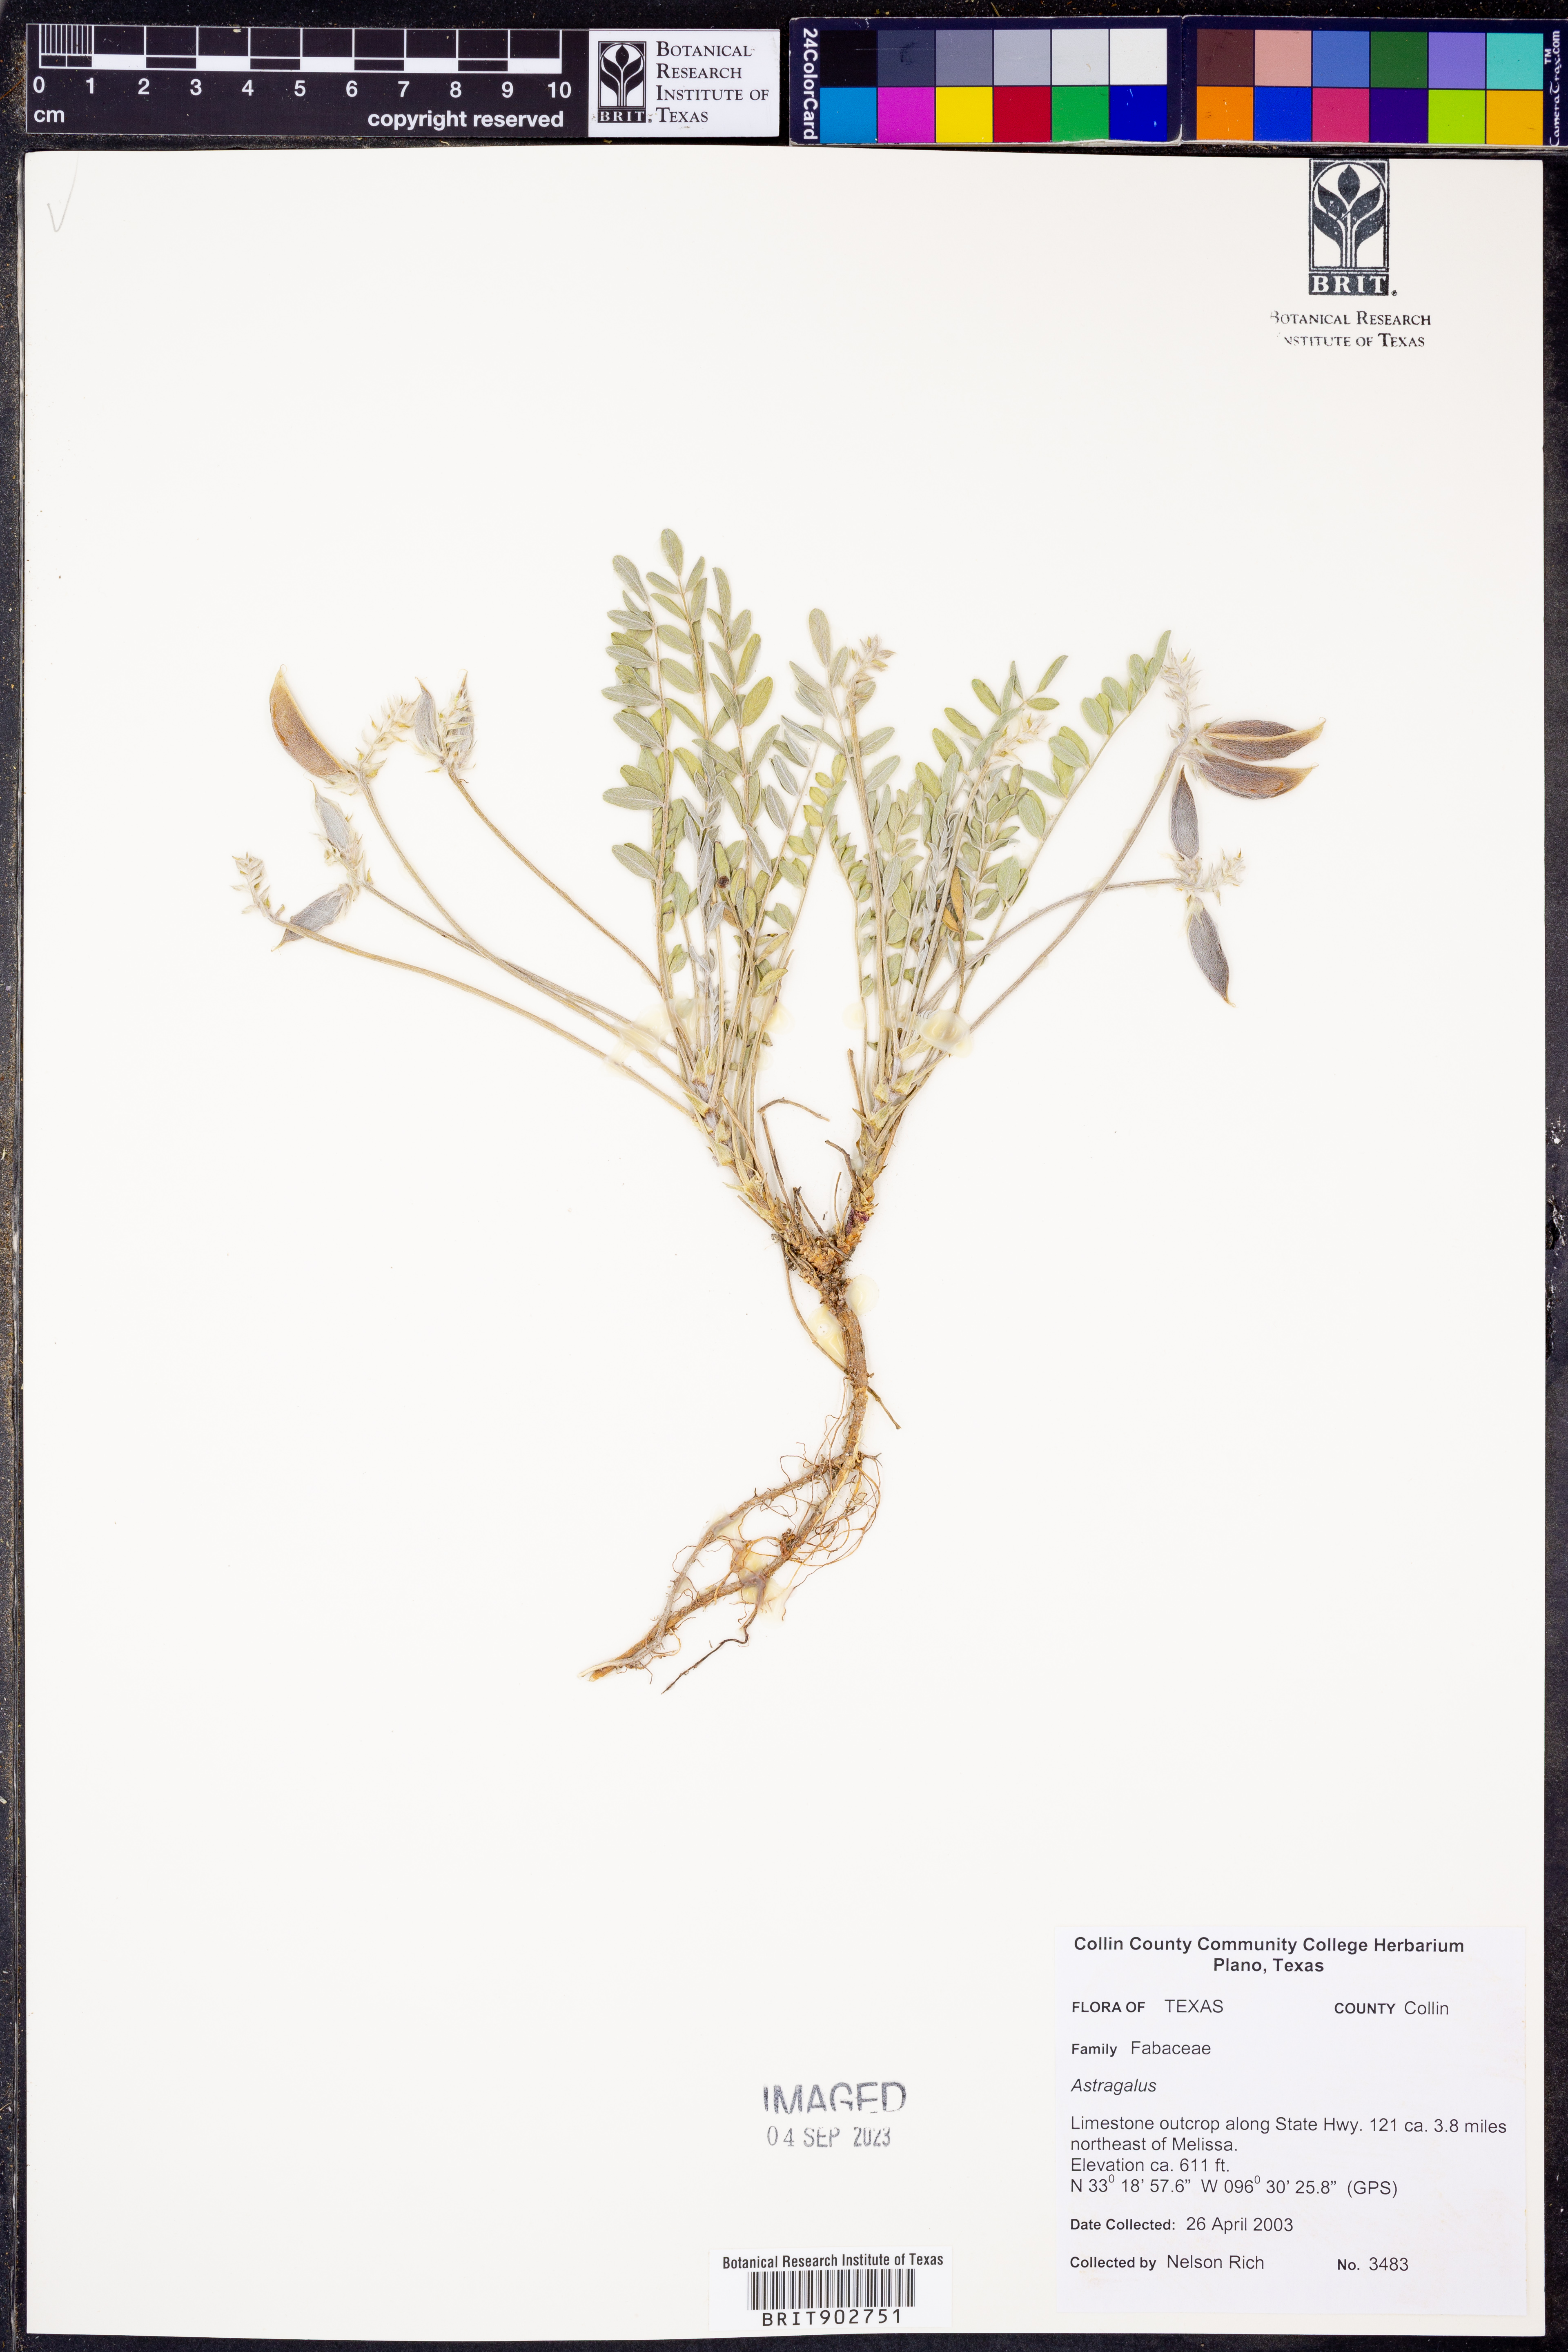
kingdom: Plantae
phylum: Tracheophyta
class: Magnoliopsida
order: Fabales
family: Fabaceae
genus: Astragalus
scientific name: Astragalus
